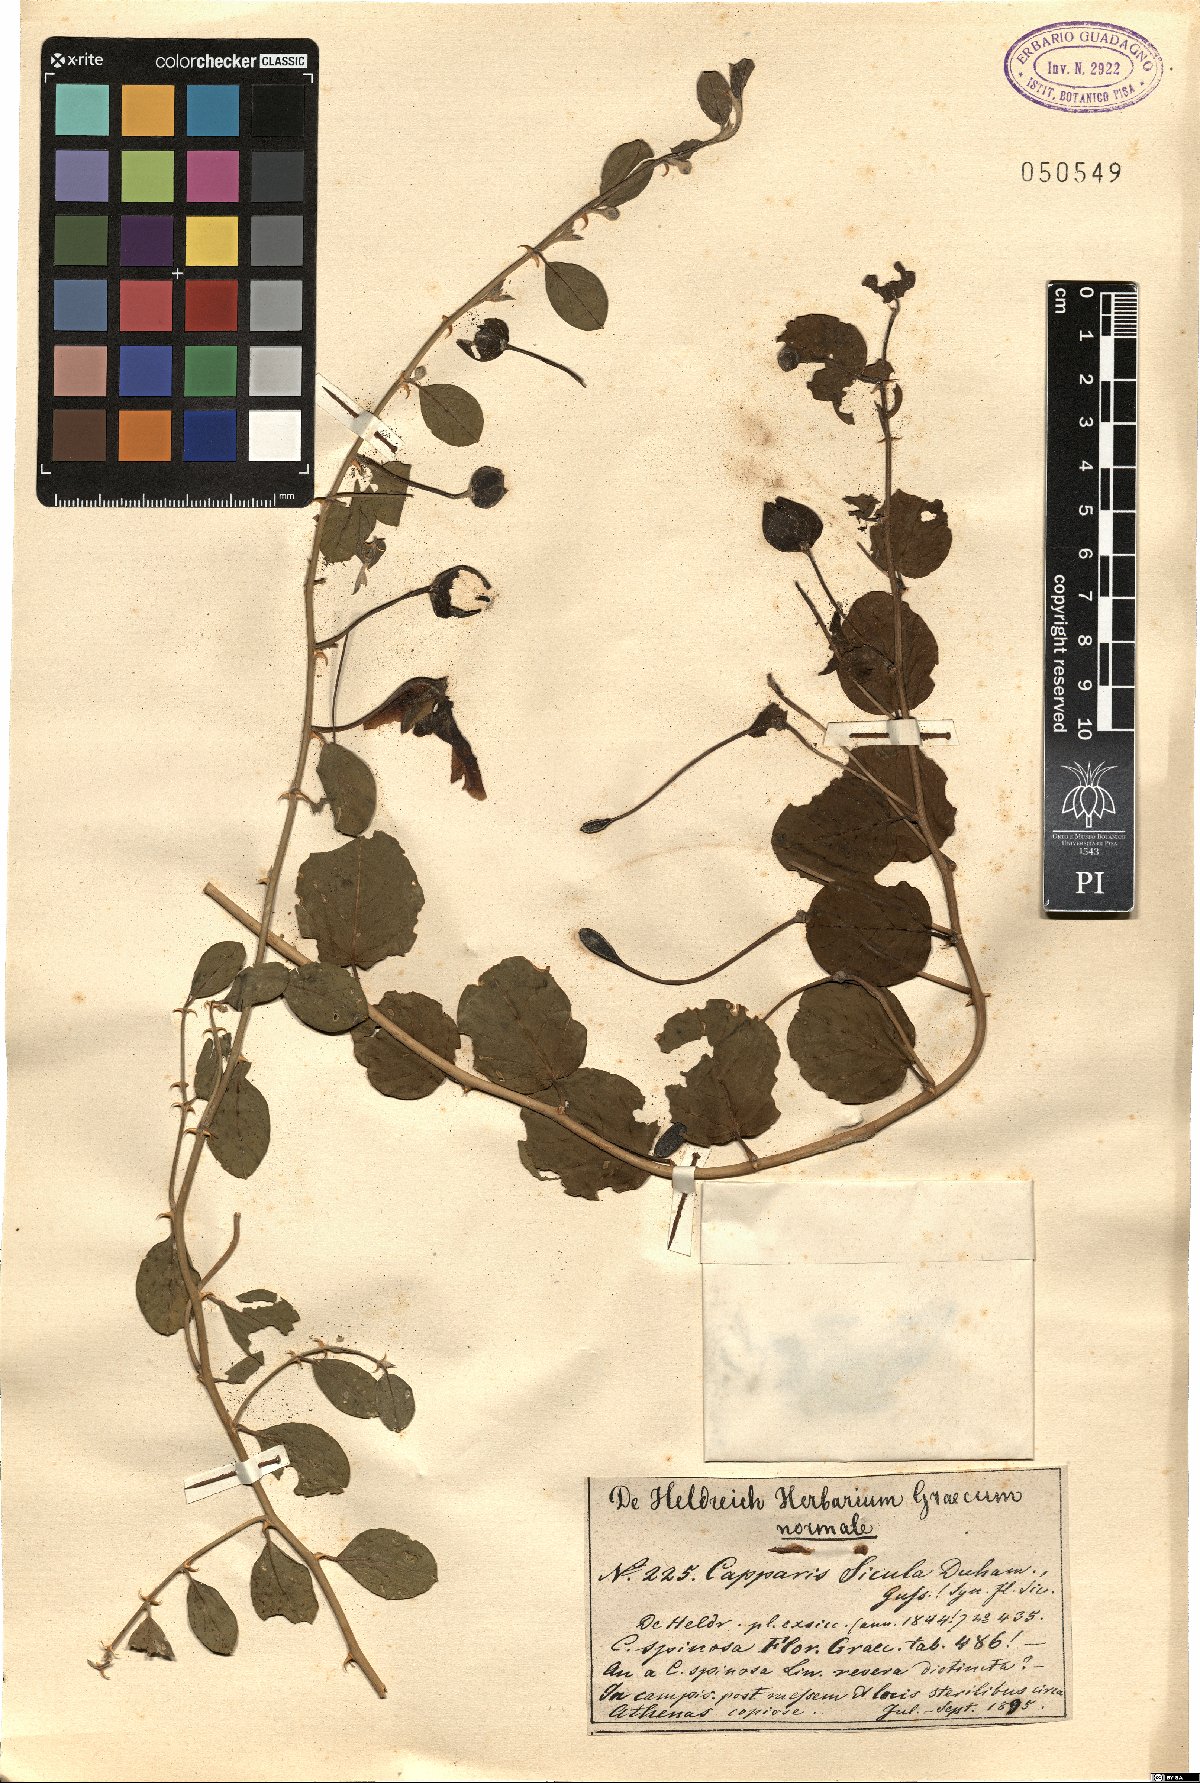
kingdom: Plantae
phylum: Tracheophyta
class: Magnoliopsida
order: Brassicales
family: Capparaceae
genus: Capparis
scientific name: Capparis spinosa
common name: Caper
